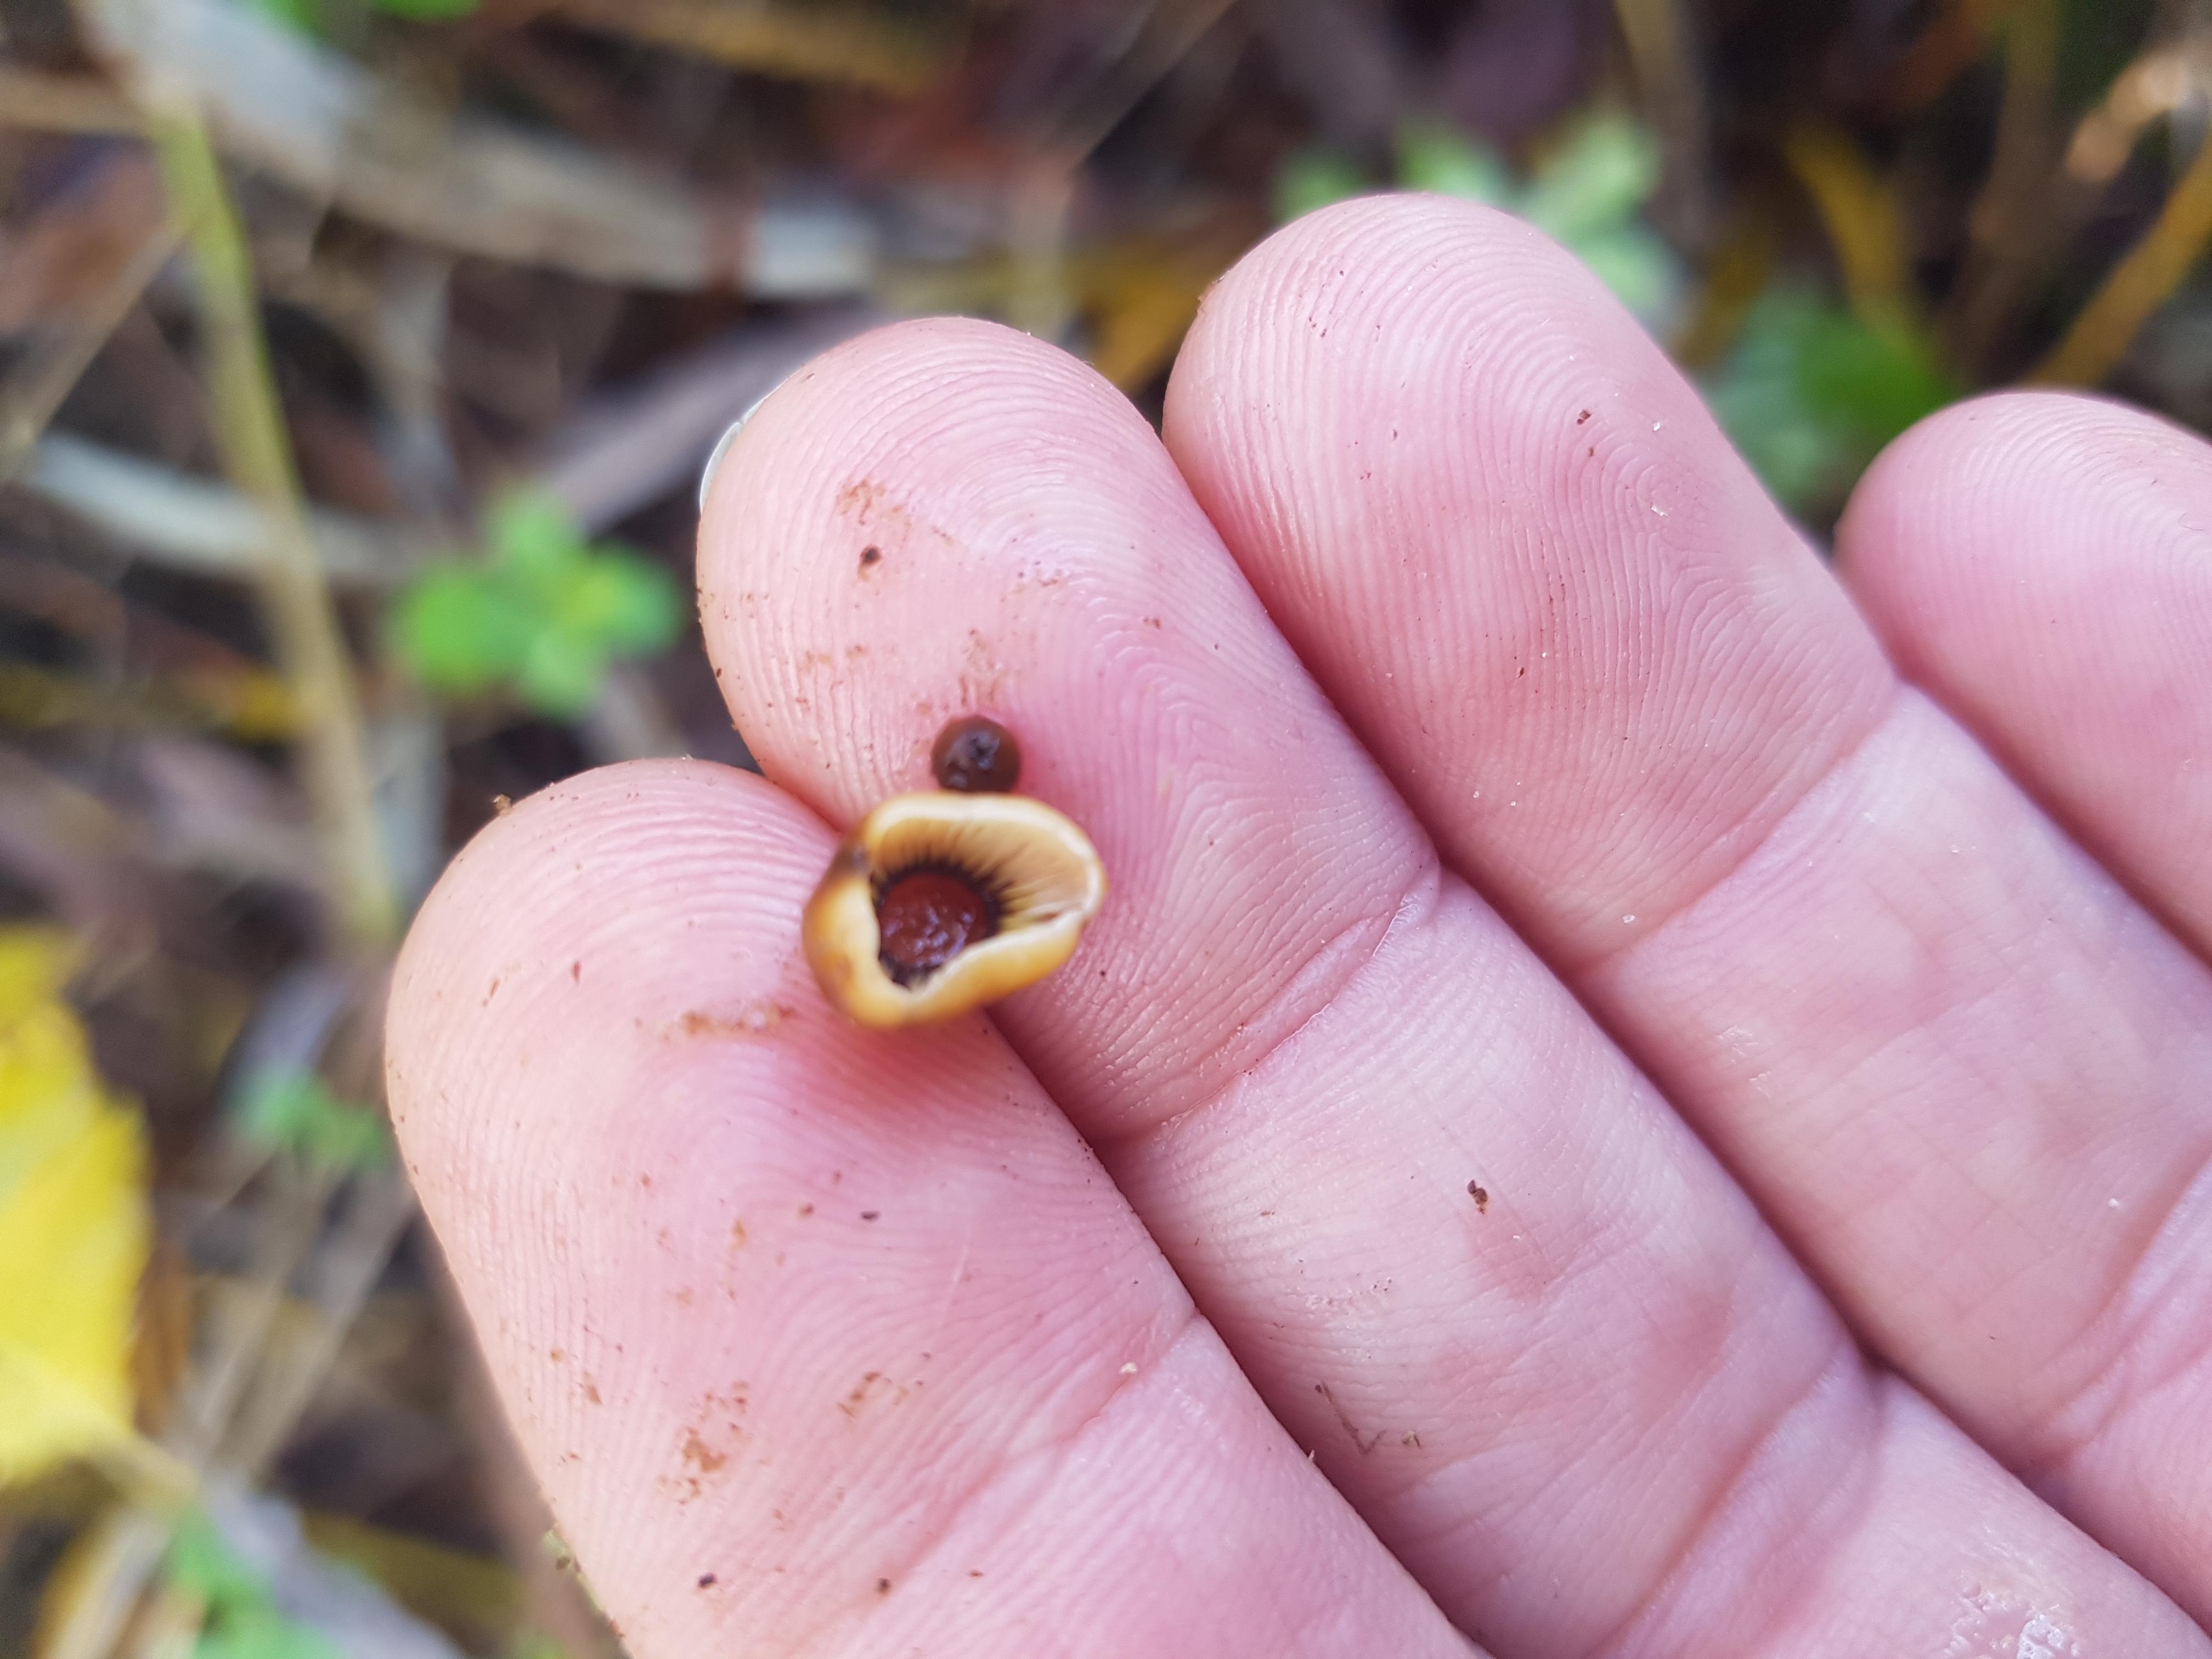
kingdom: Fungi
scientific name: Fungi
